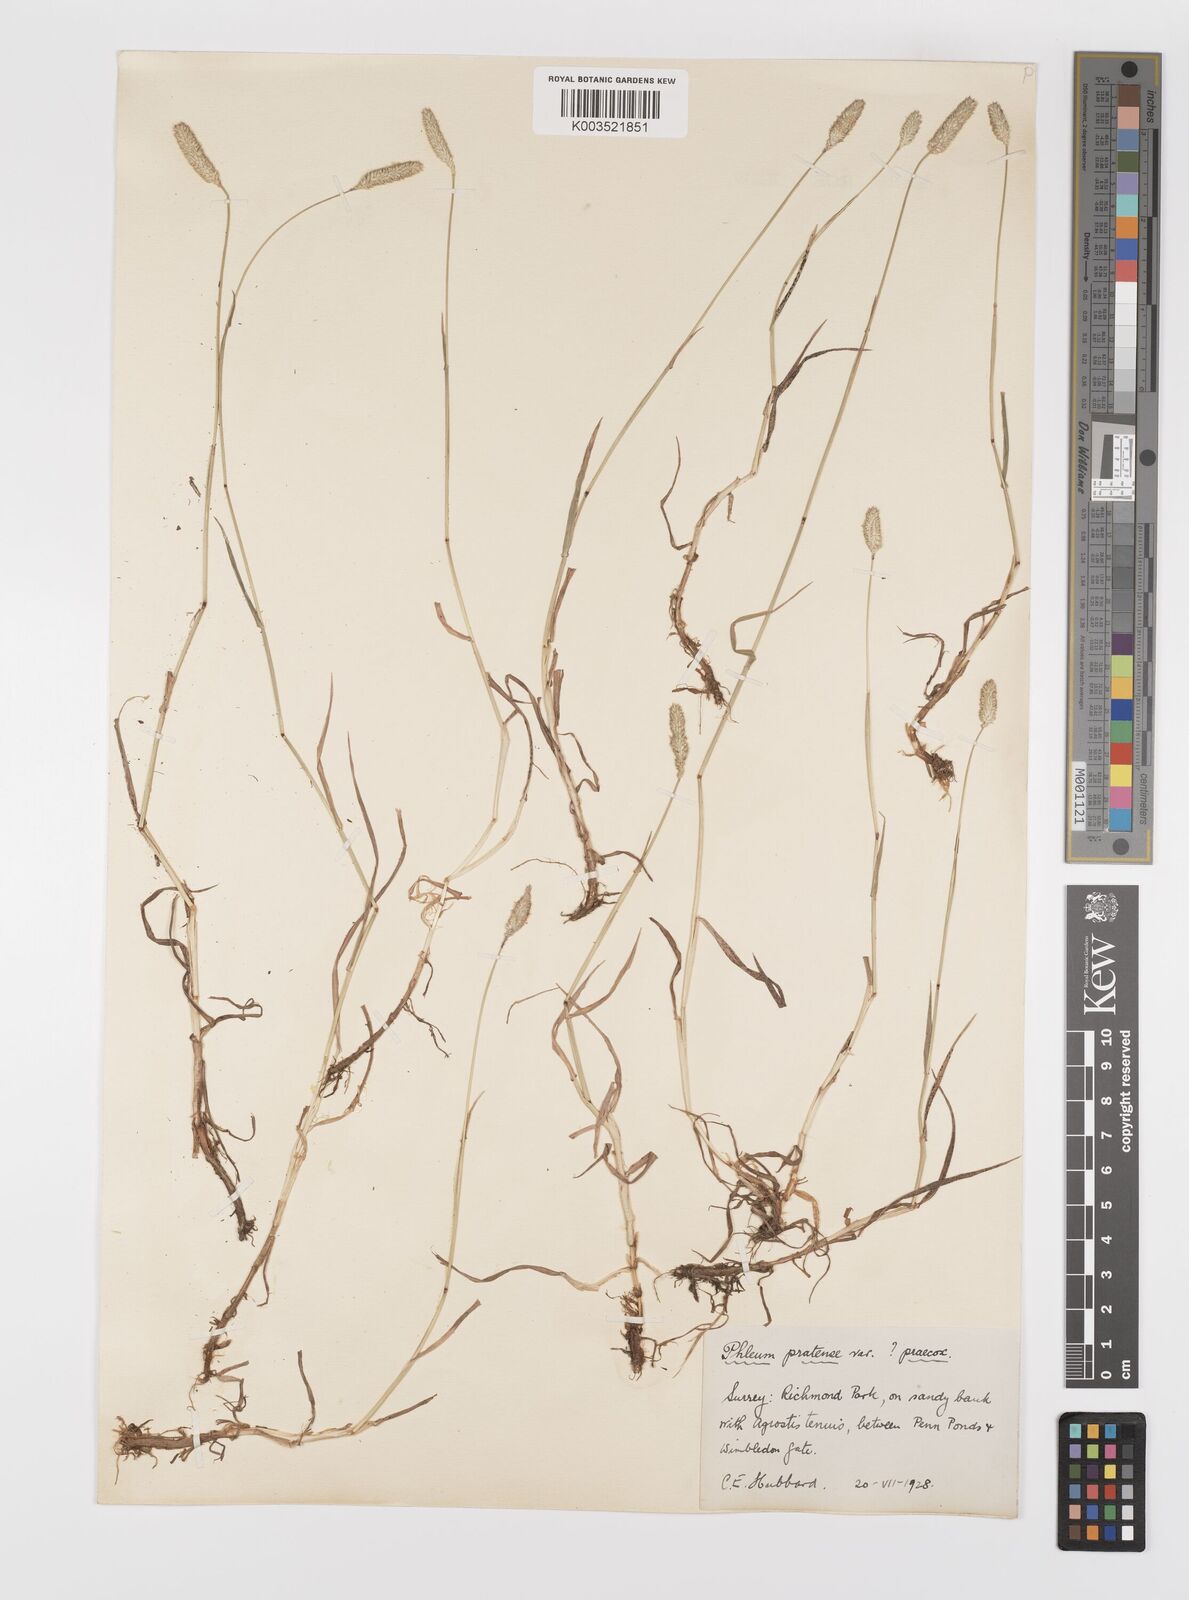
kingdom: Plantae
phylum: Tracheophyta
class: Liliopsida
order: Poales
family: Poaceae
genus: Phleum
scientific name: Phleum bertolonii
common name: Smaller cat's-tail
